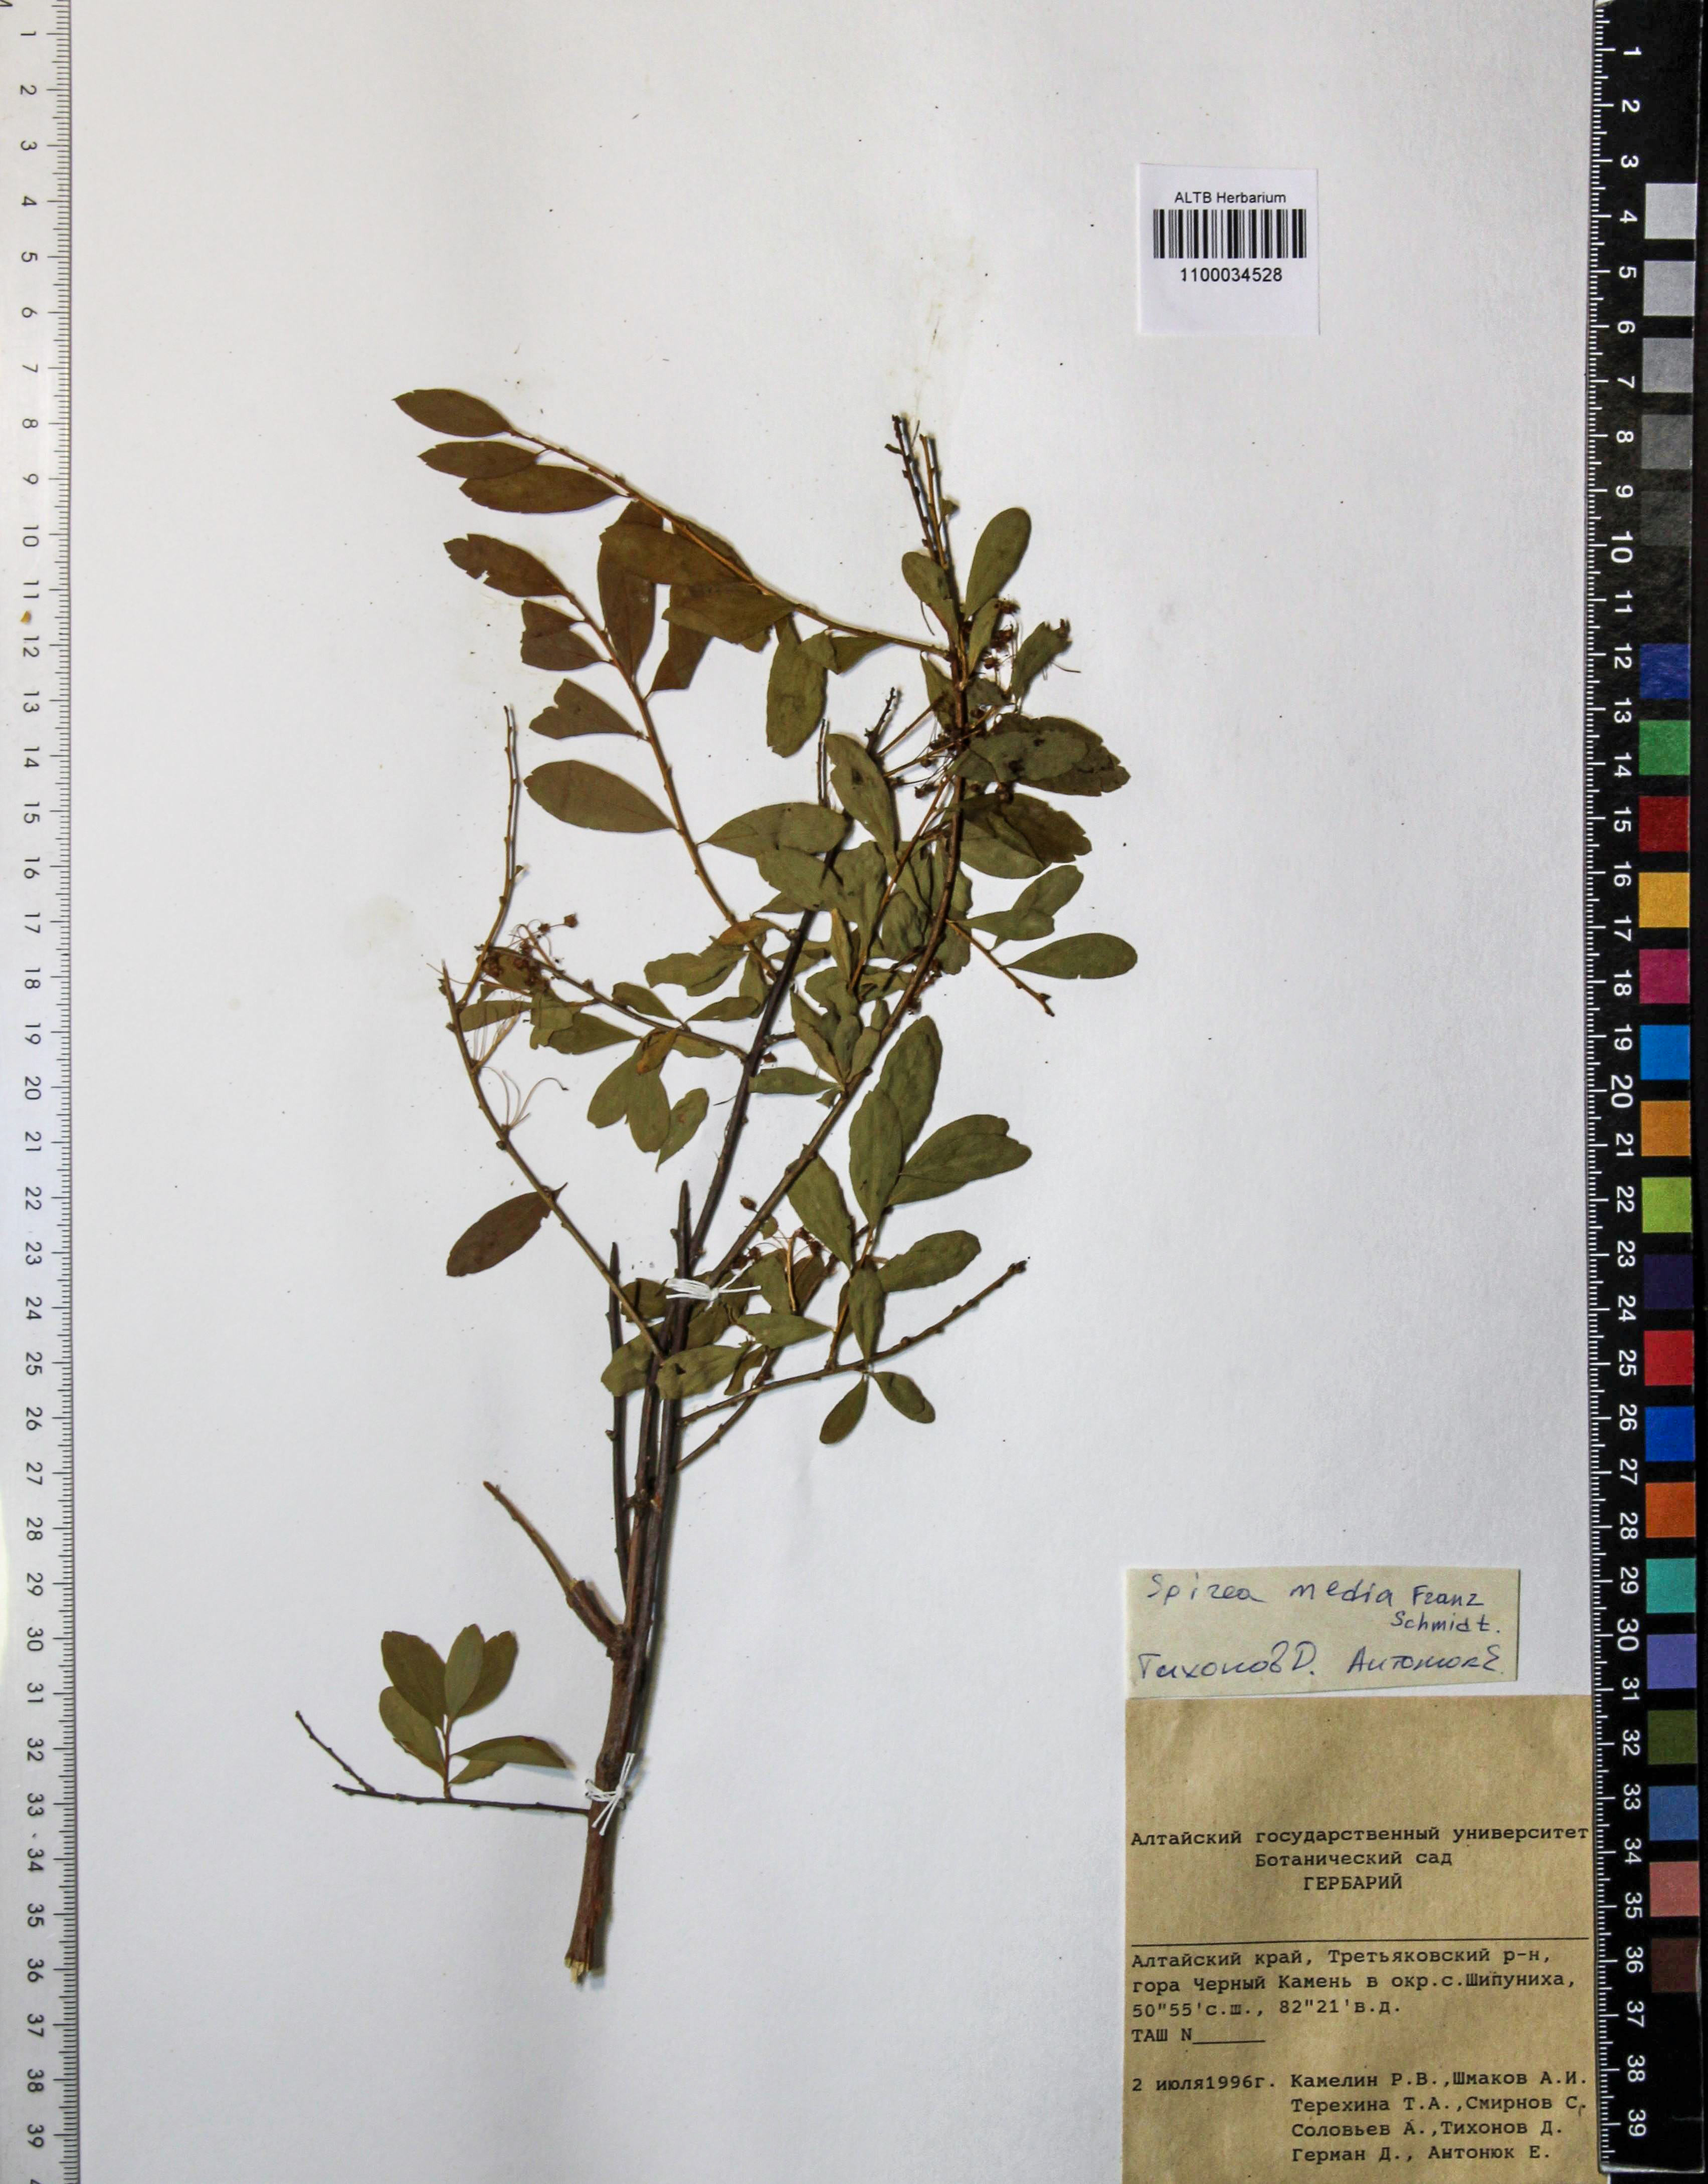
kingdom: Plantae
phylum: Tracheophyta
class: Magnoliopsida
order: Rosales
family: Rosaceae
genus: Spiraea
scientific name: Spiraea media
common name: Russian spiraea
